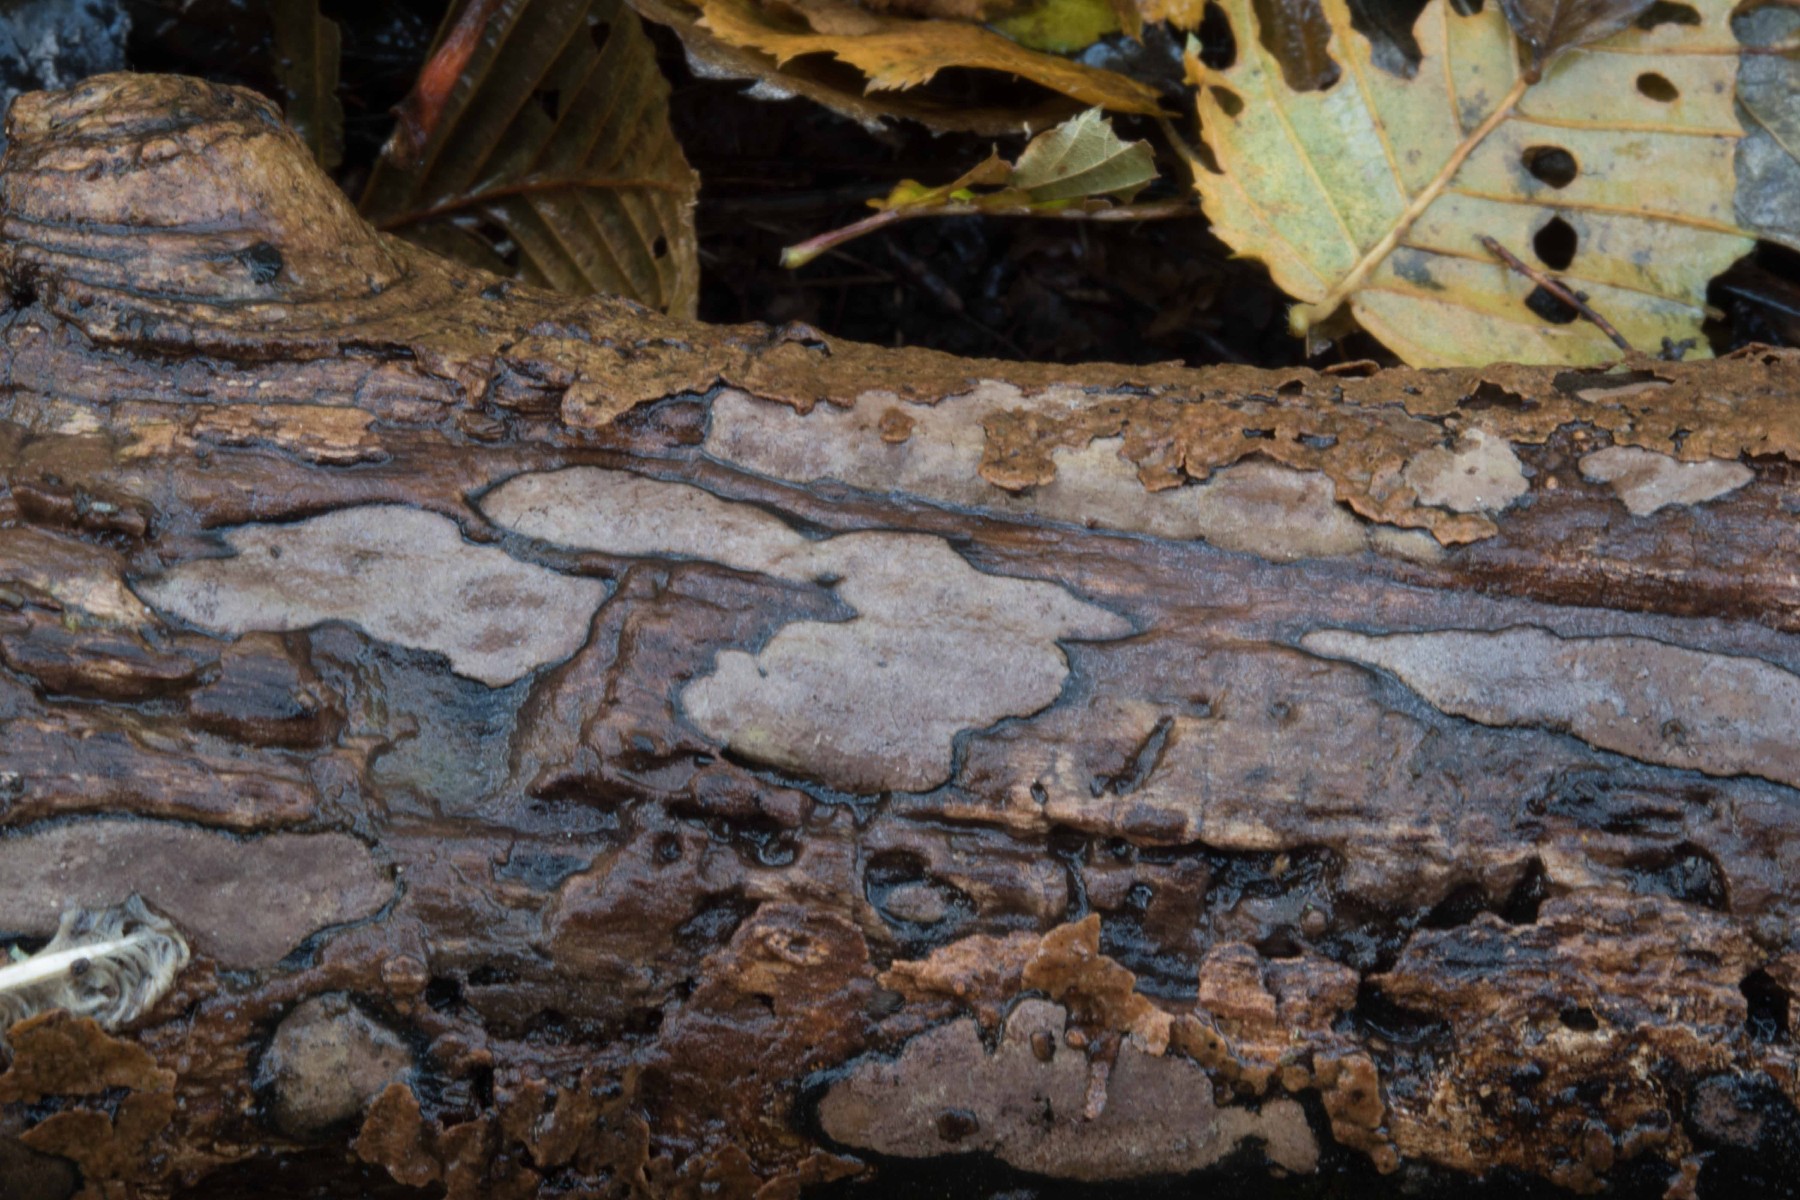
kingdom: Fungi
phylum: Ascomycota
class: Sordariomycetes
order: Xylariales
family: Hypoxylaceae
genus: Hypoxylon
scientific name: Hypoxylon petriniae
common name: nedsænket kulbær
